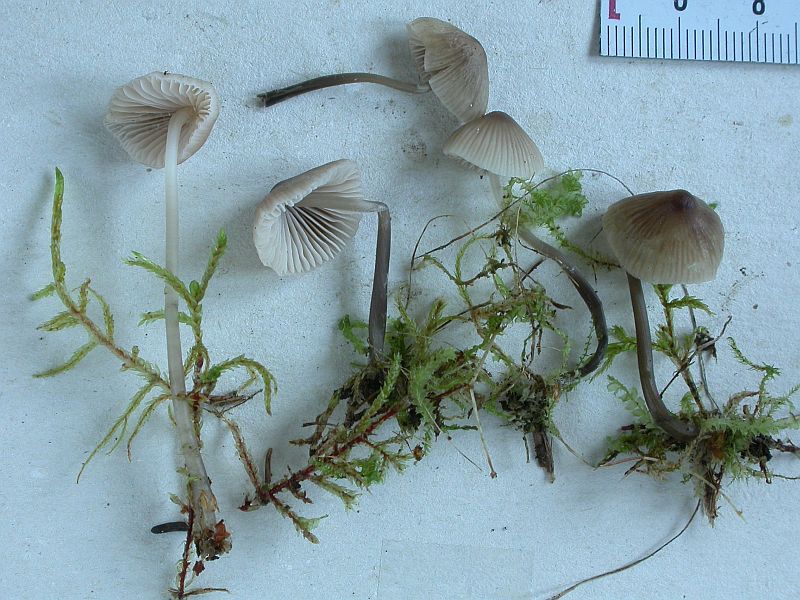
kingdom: Fungi
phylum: Basidiomycota
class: Agaricomycetes
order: Agaricales
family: Mycenaceae
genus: Mycena
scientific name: Mycena filopes
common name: jod-huesvamp
